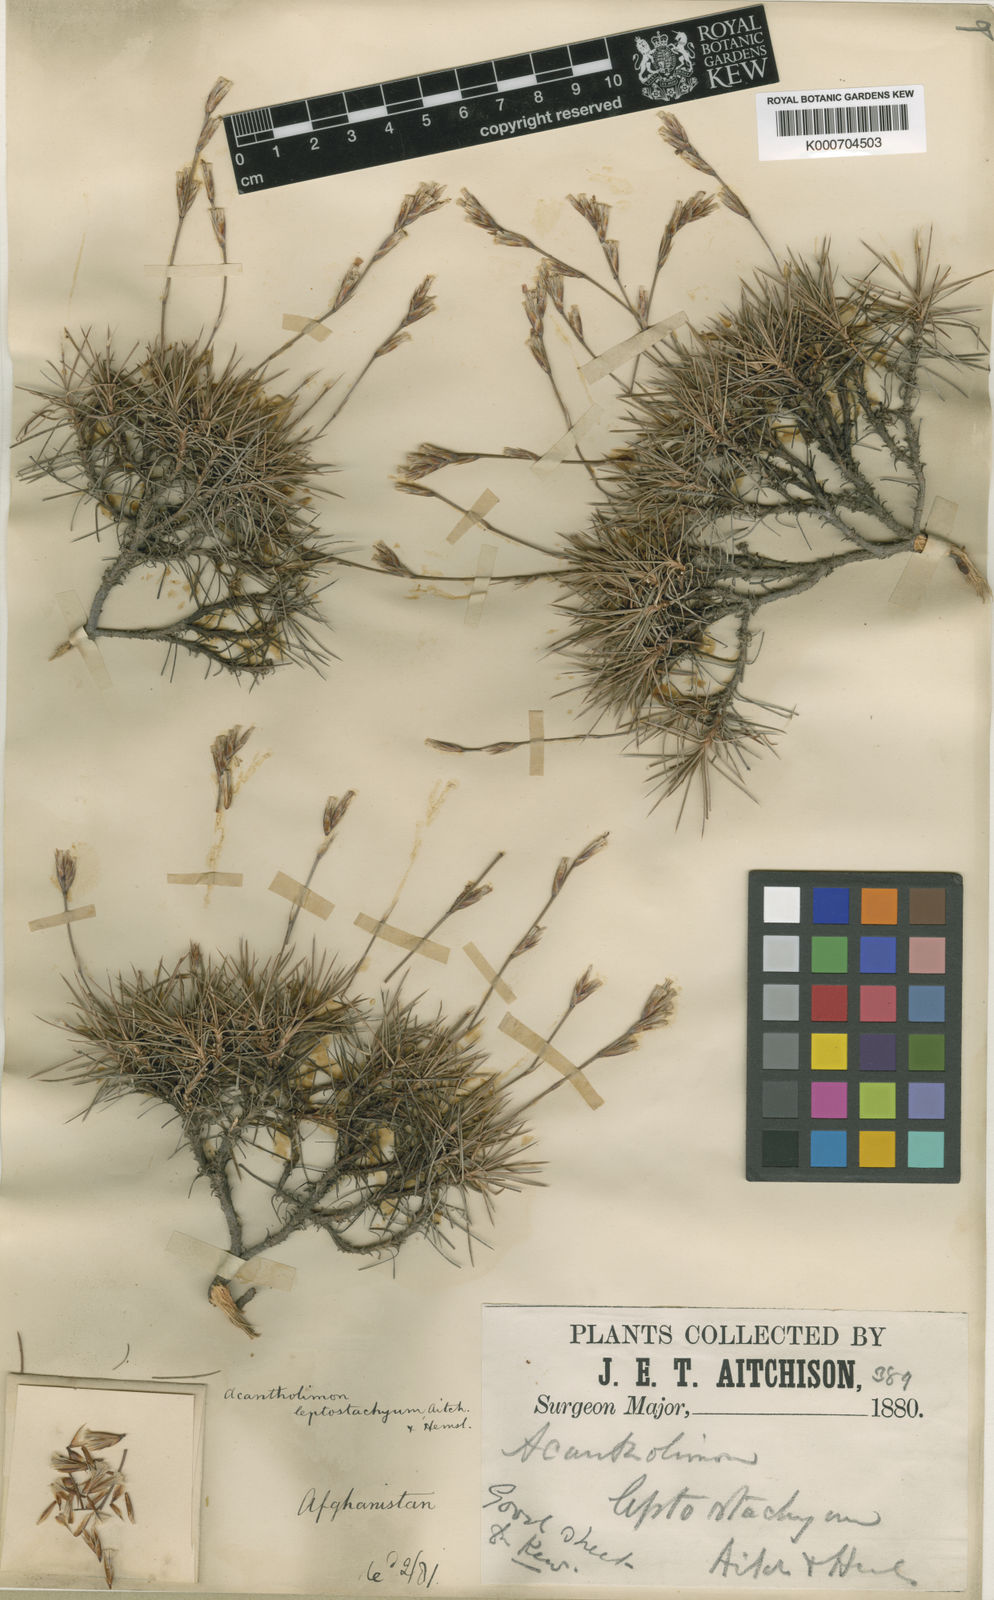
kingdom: Plantae
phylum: Tracheophyta
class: Magnoliopsida
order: Caryophyllales
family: Plumbaginaceae
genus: Acantholimon
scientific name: Acantholimon subulatum
